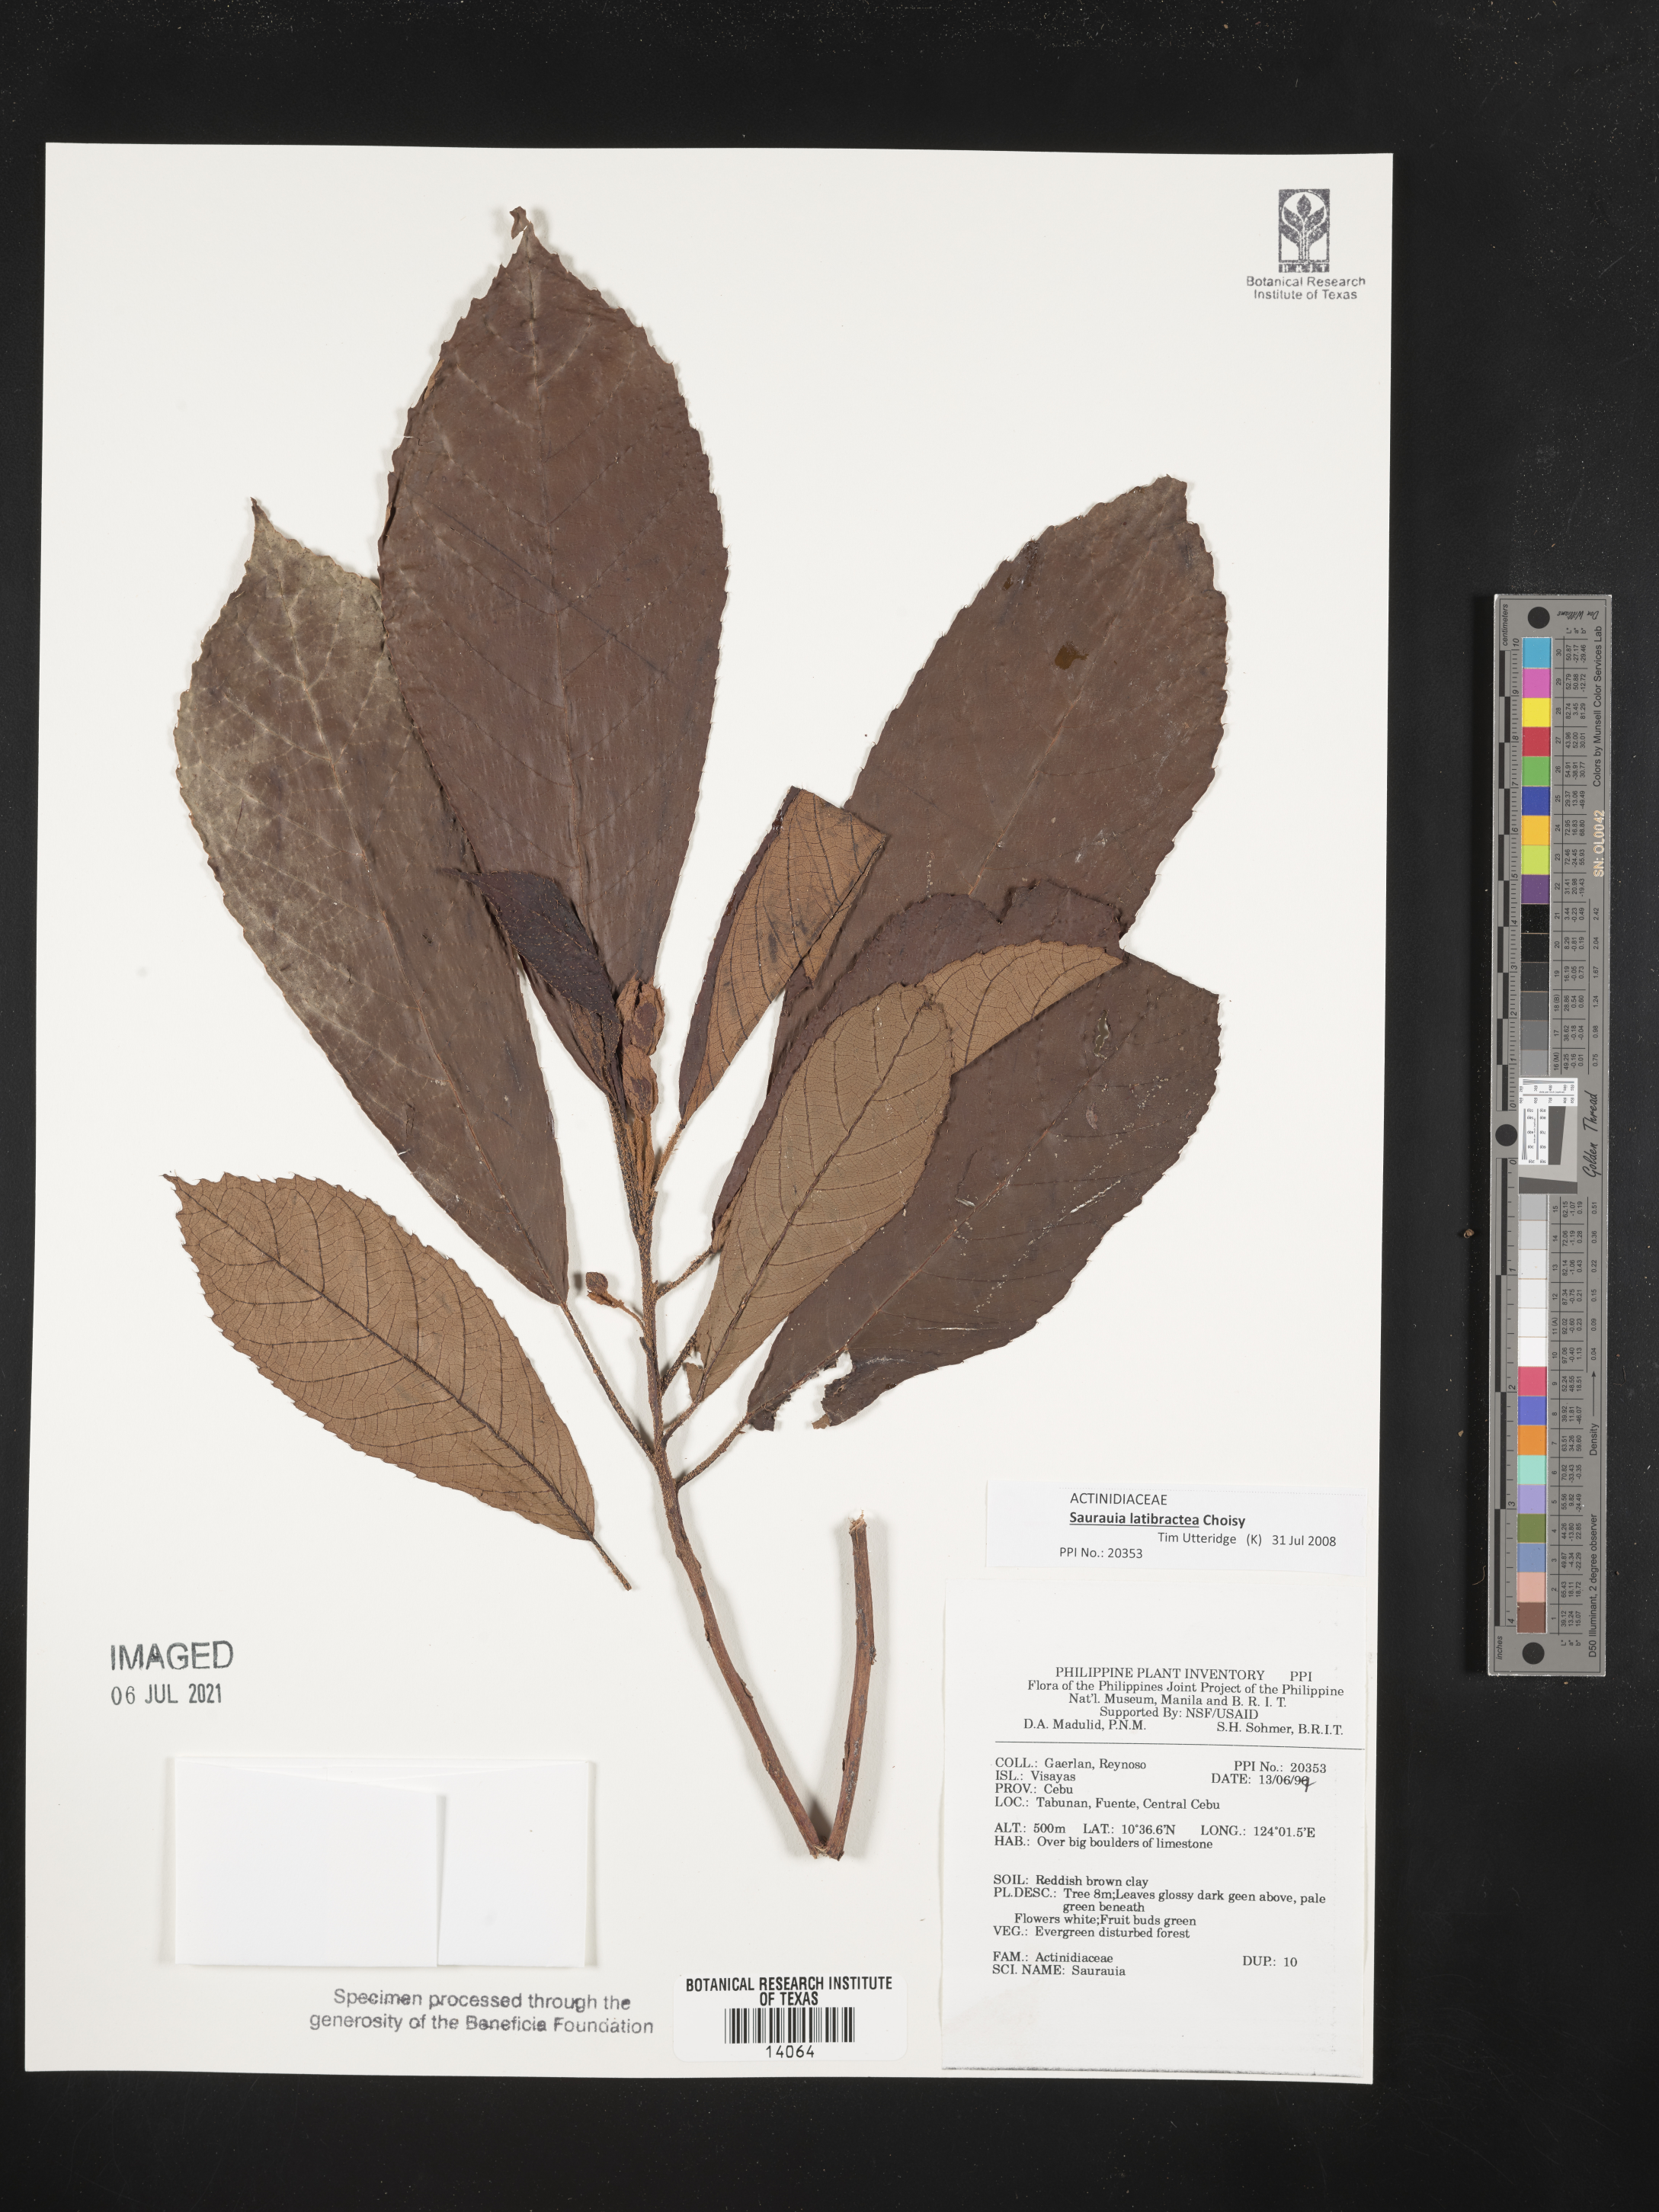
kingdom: Plantae
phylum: Tracheophyta
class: Magnoliopsida
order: Ericales
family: Actinidiaceae
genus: Saurauia
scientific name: Saurauia
